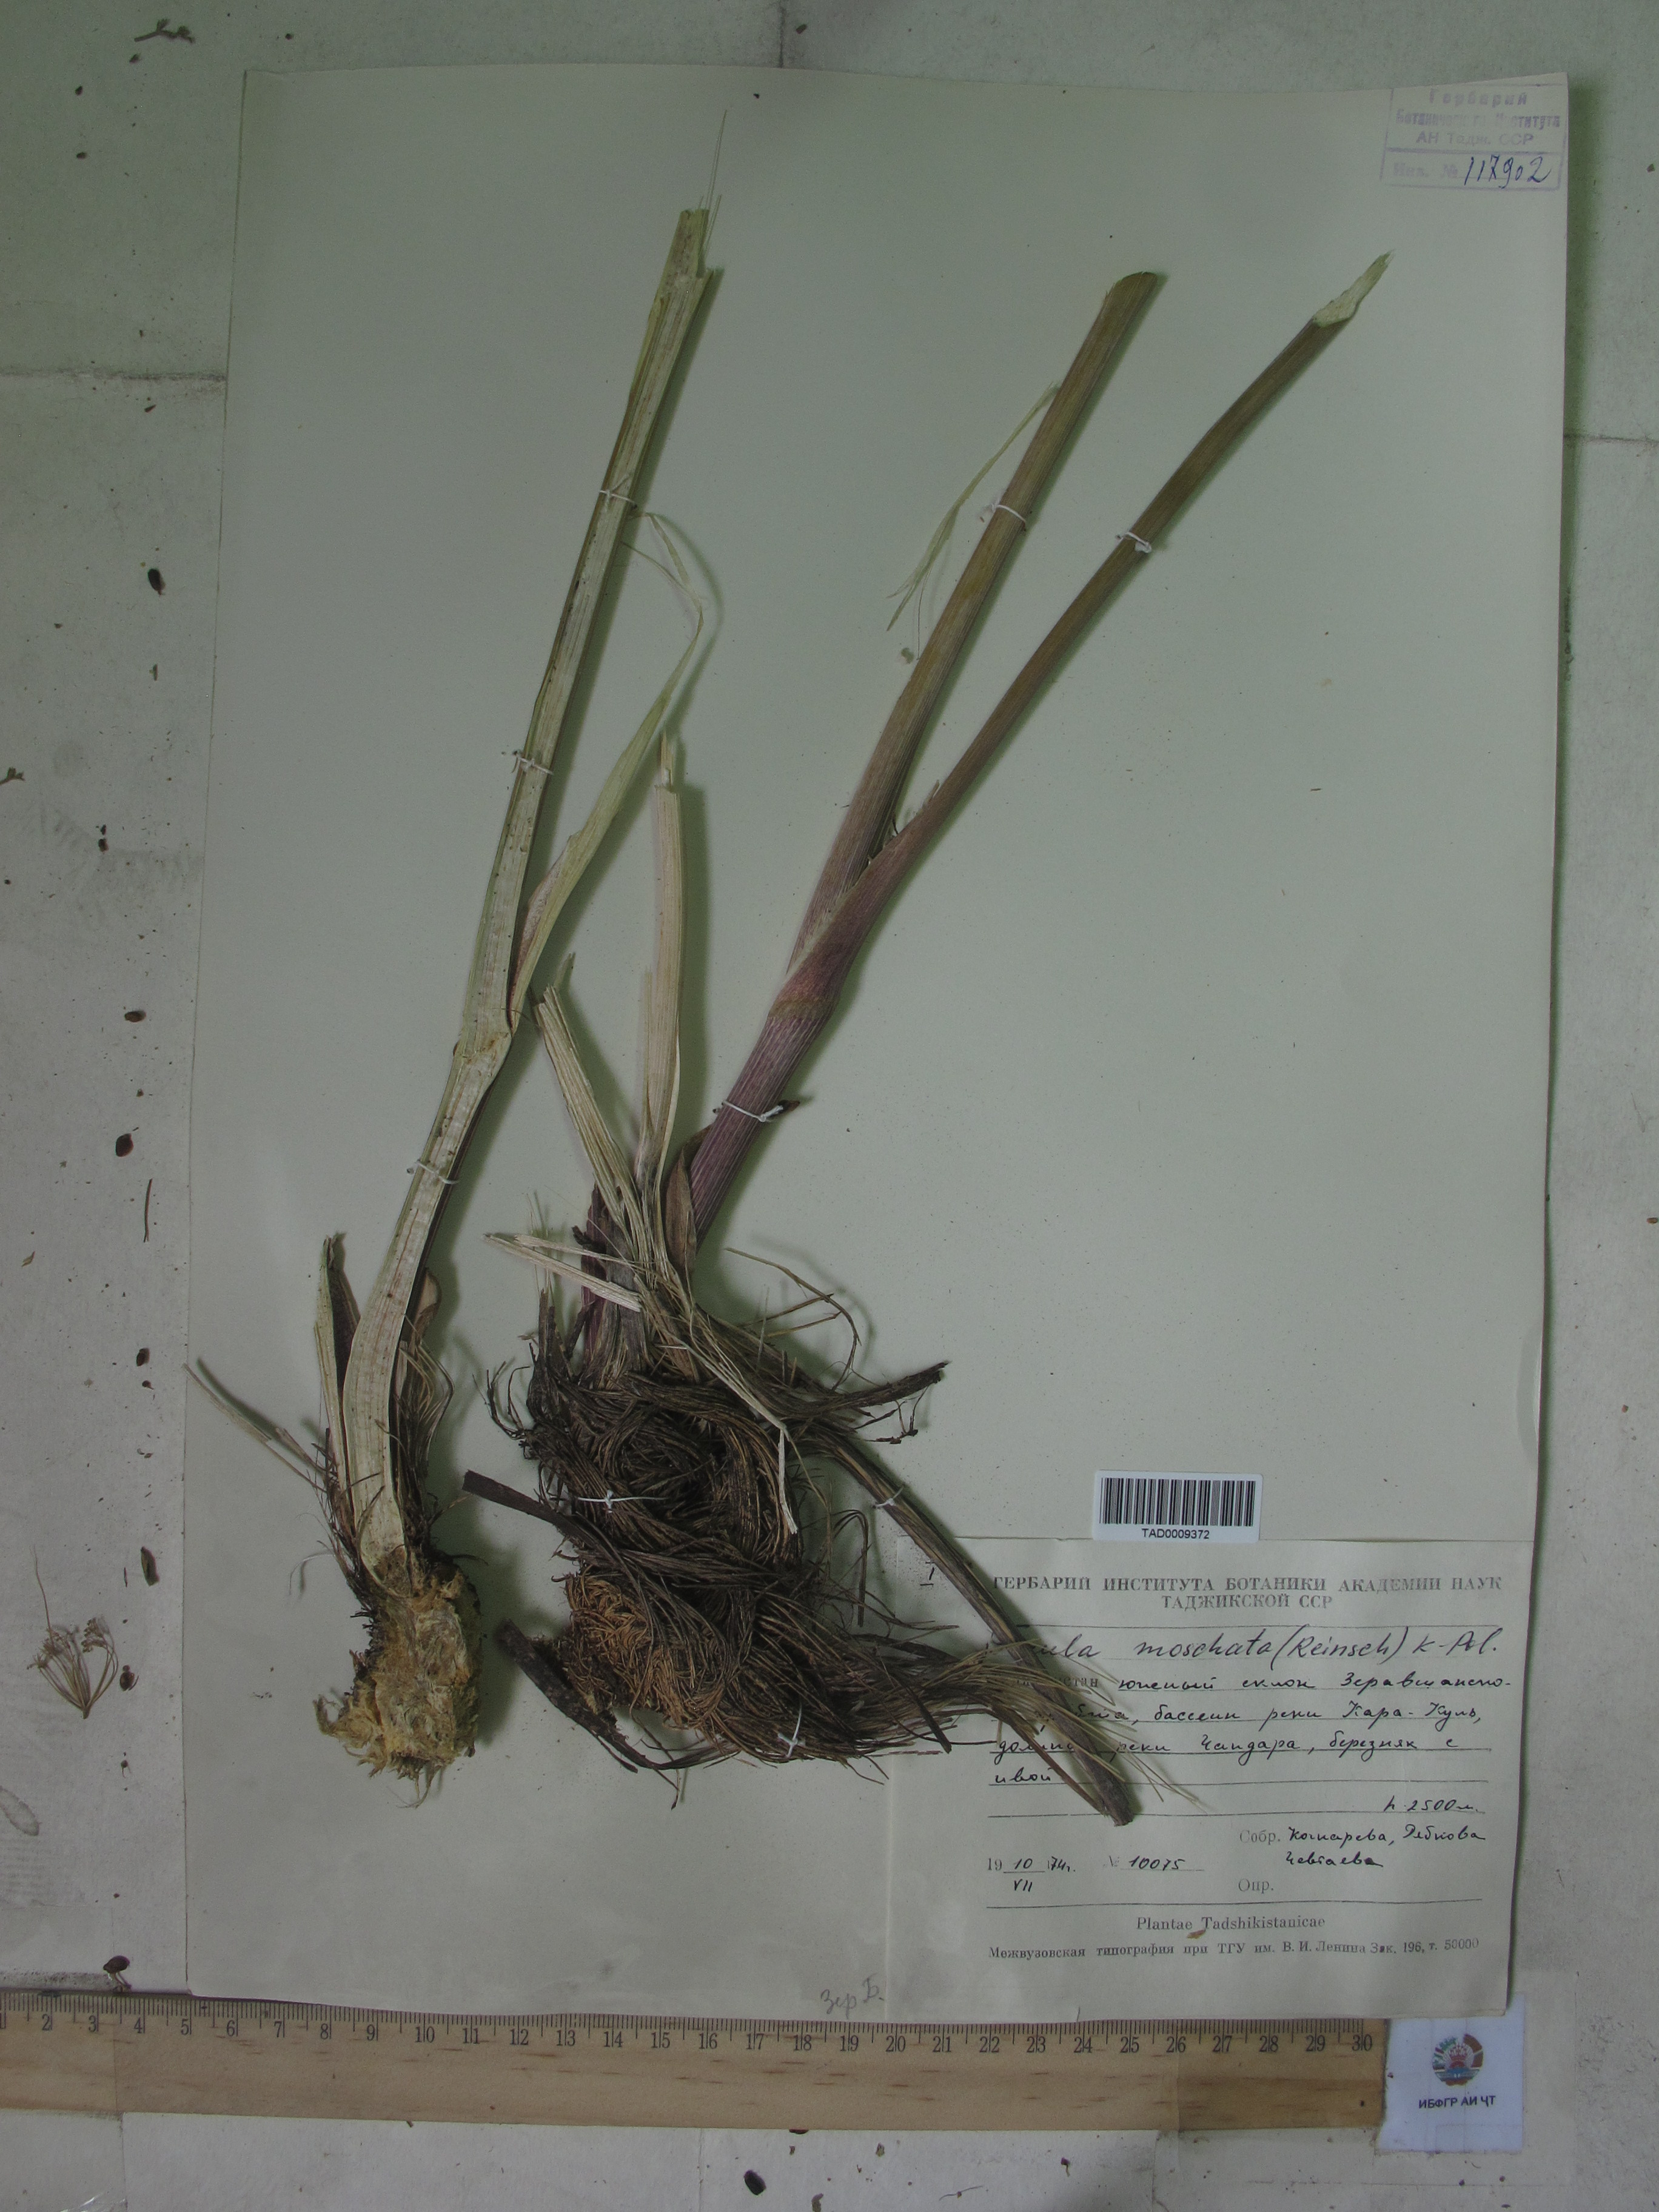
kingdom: Plantae
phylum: Tracheophyta
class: Magnoliopsida
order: Apiales
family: Apiaceae
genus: Ferula
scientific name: Ferula moschata
